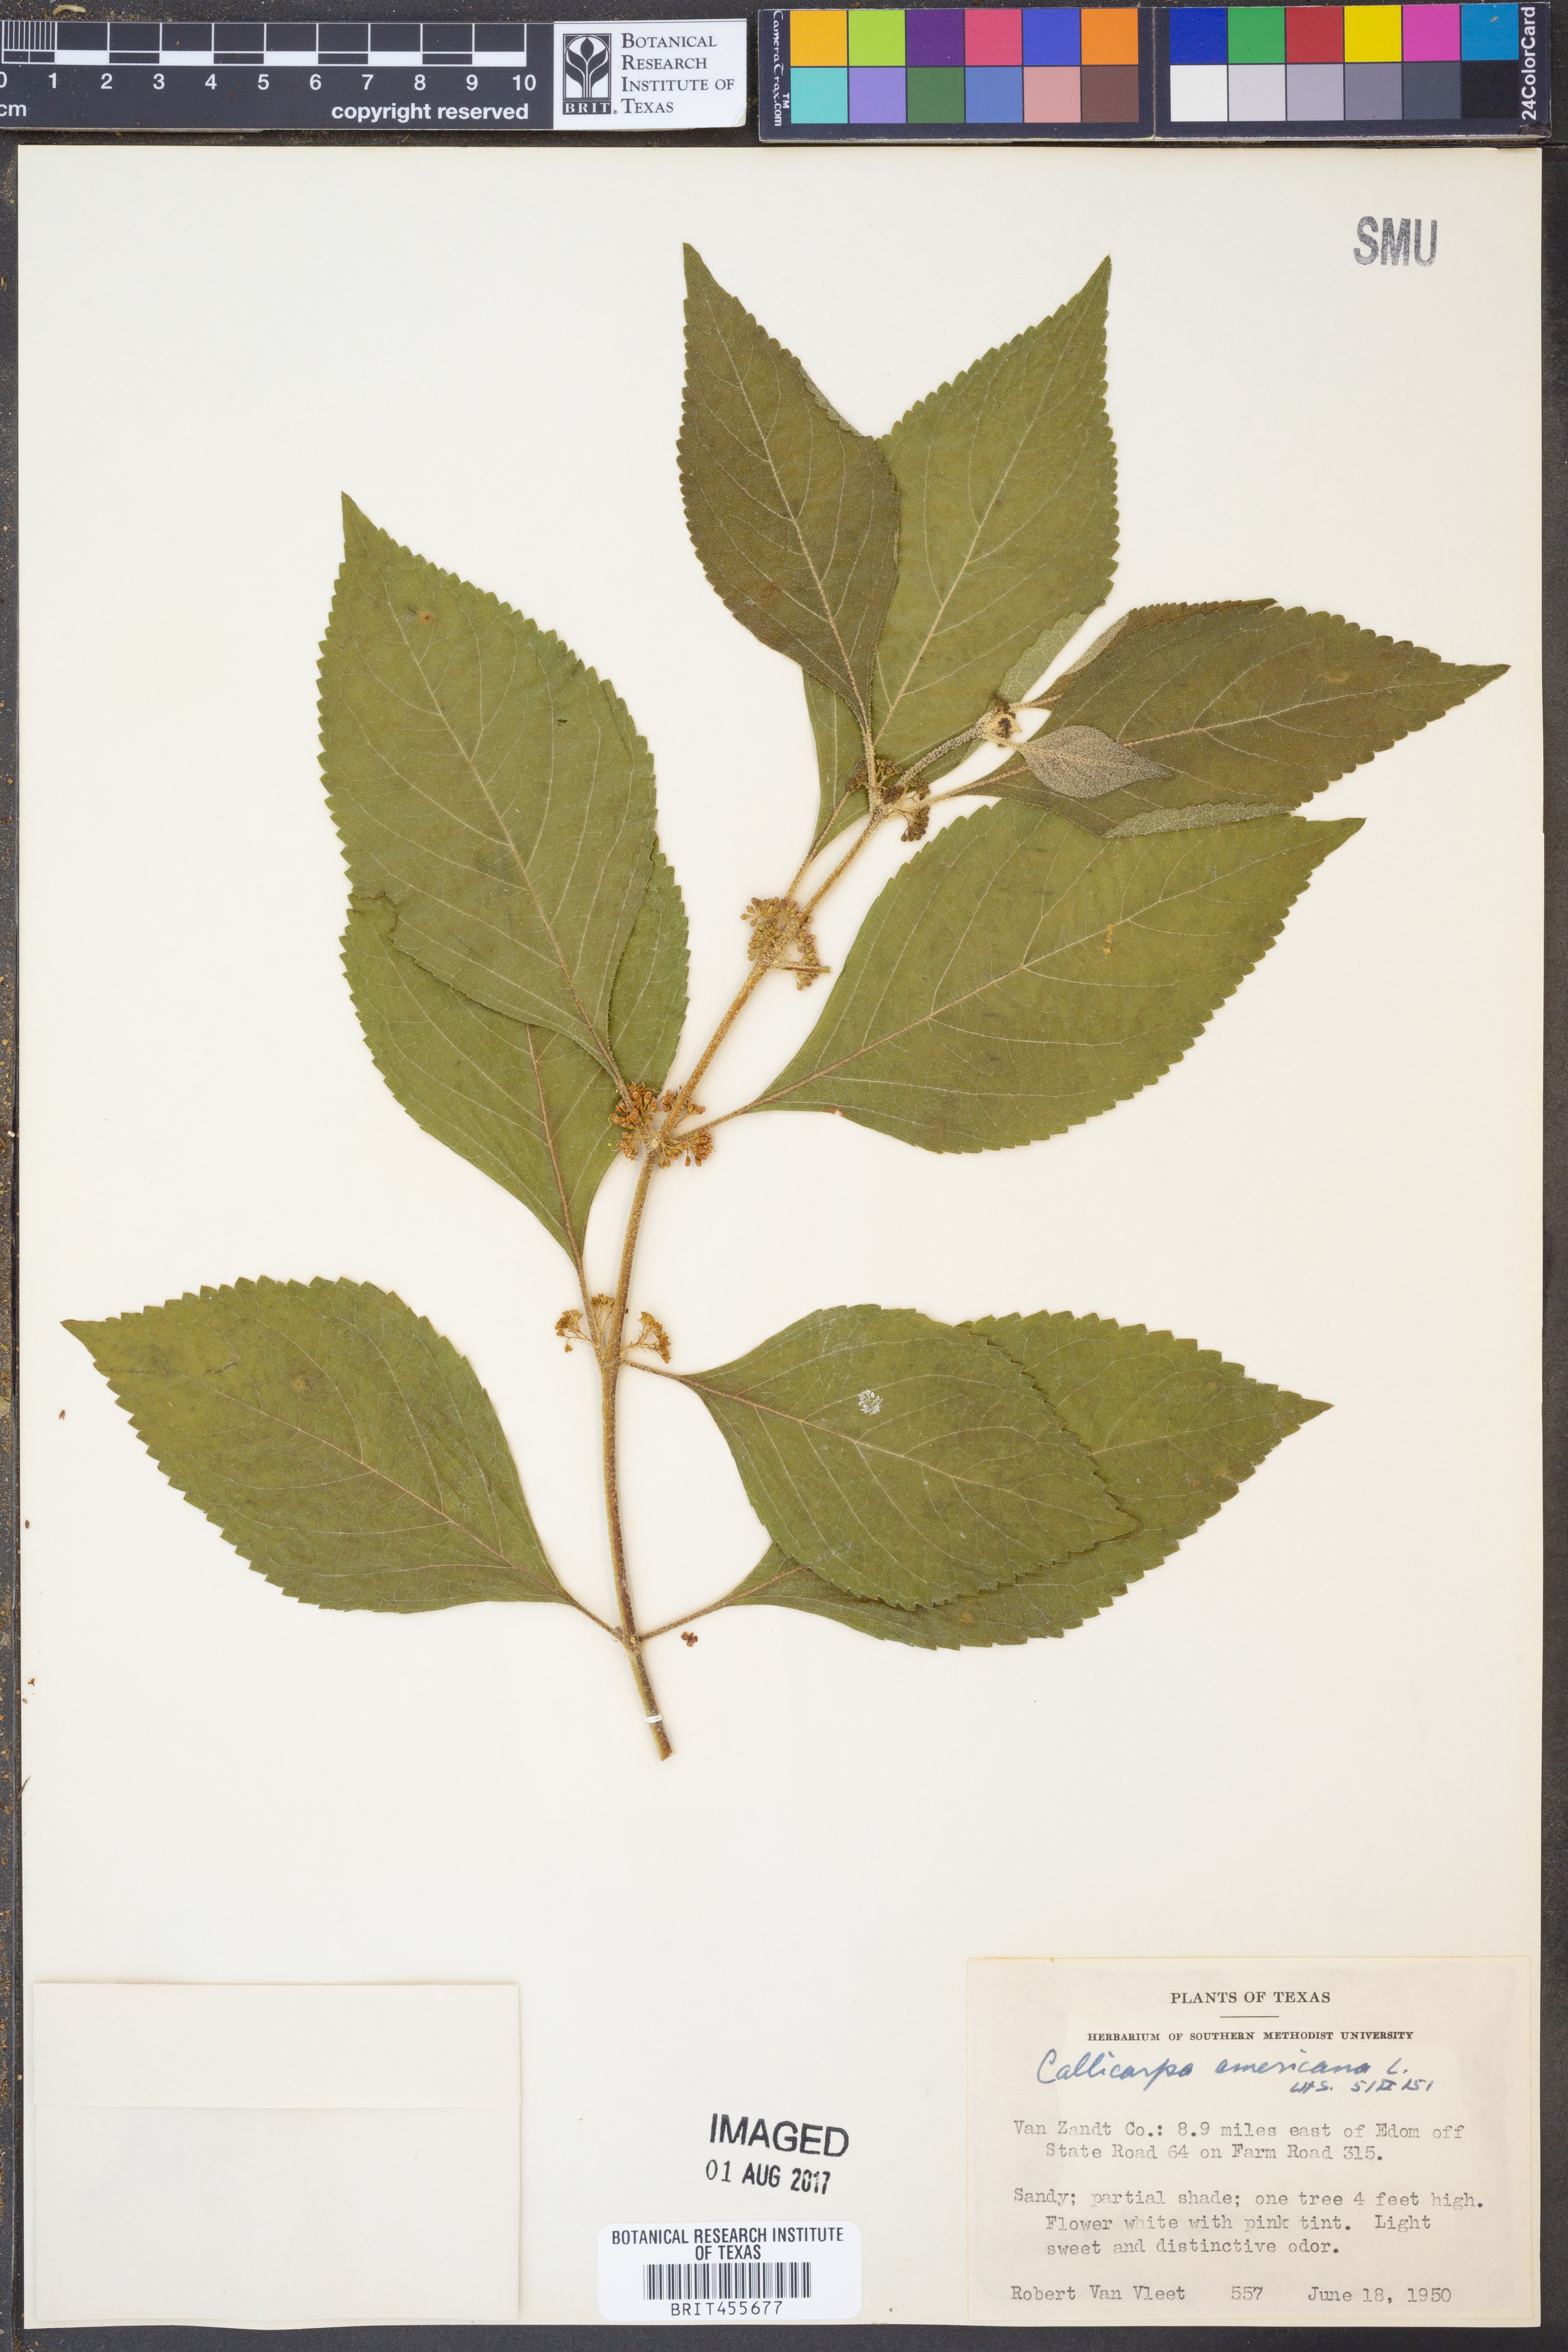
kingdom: Plantae
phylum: Tracheophyta
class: Magnoliopsida
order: Lamiales
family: Lamiaceae
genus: Callicarpa
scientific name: Callicarpa americana
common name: American beautyberry
